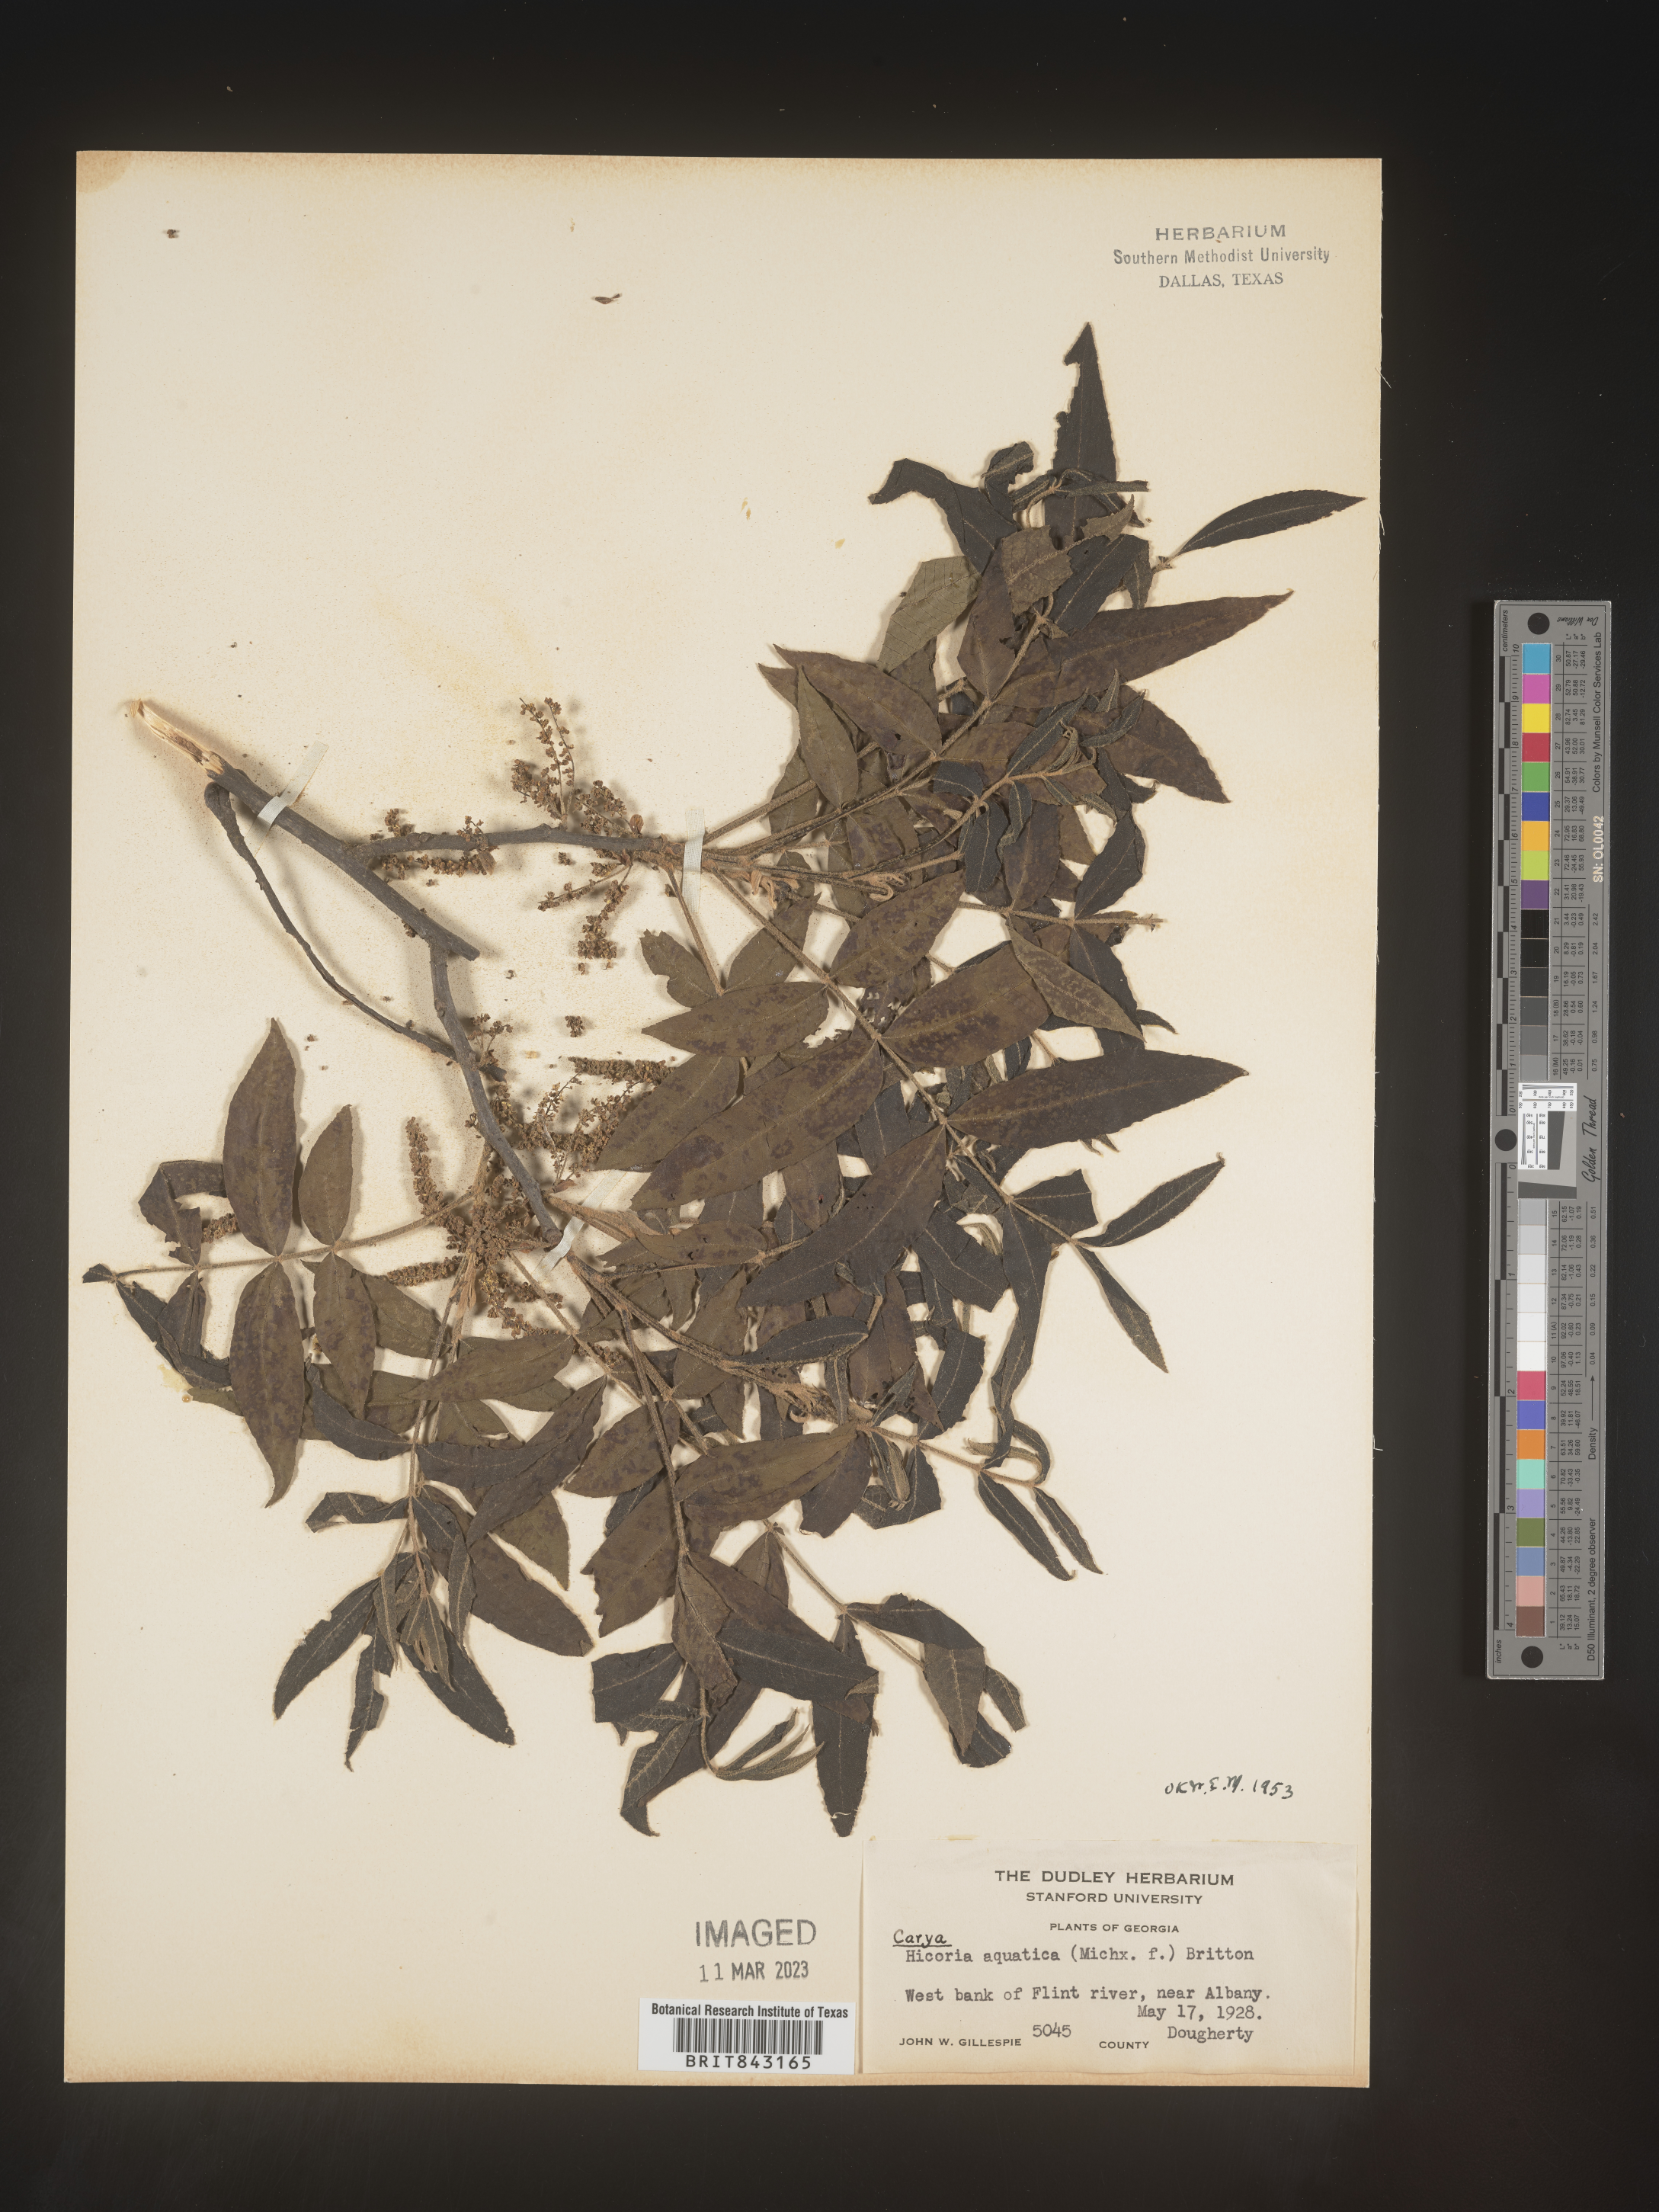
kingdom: Plantae
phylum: Tracheophyta
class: Magnoliopsida
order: Fagales
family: Juglandaceae
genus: Carya
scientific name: Carya aquatica
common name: Water hickory
